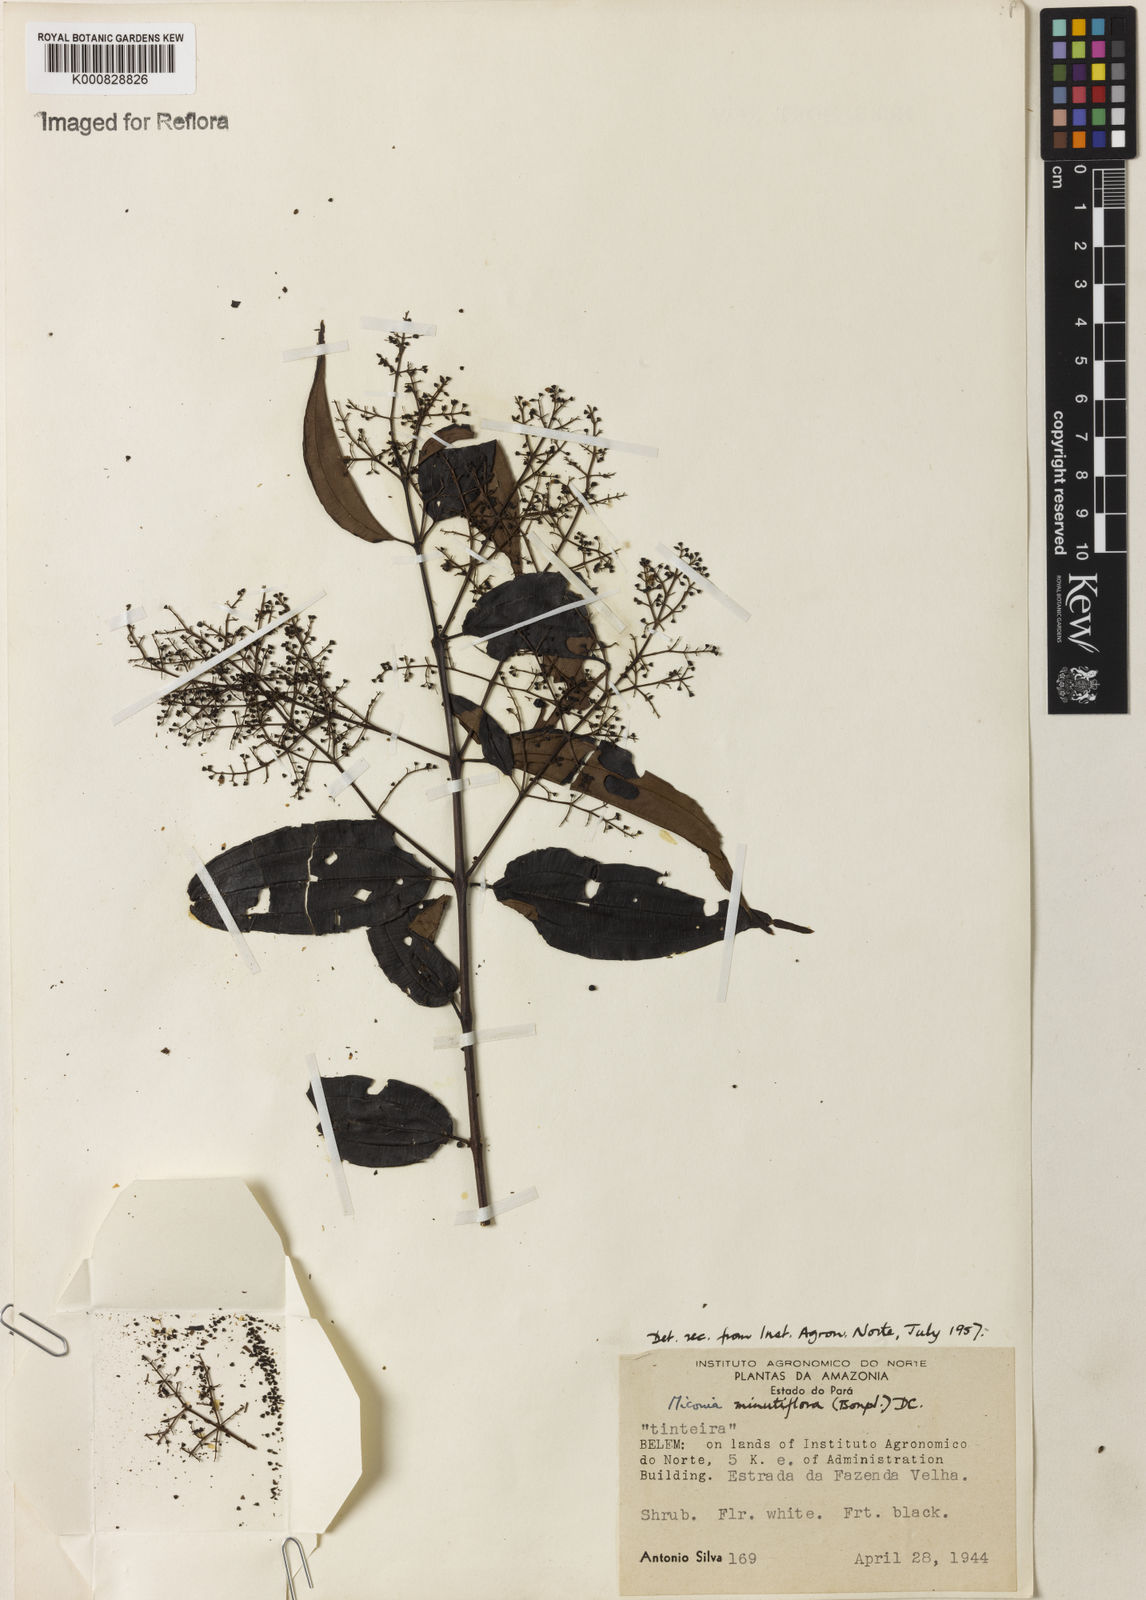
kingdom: Plantae
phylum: Tracheophyta
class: Magnoliopsida
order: Myrtales
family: Melastomataceae
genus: Miconia
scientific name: Miconia minutiflora
